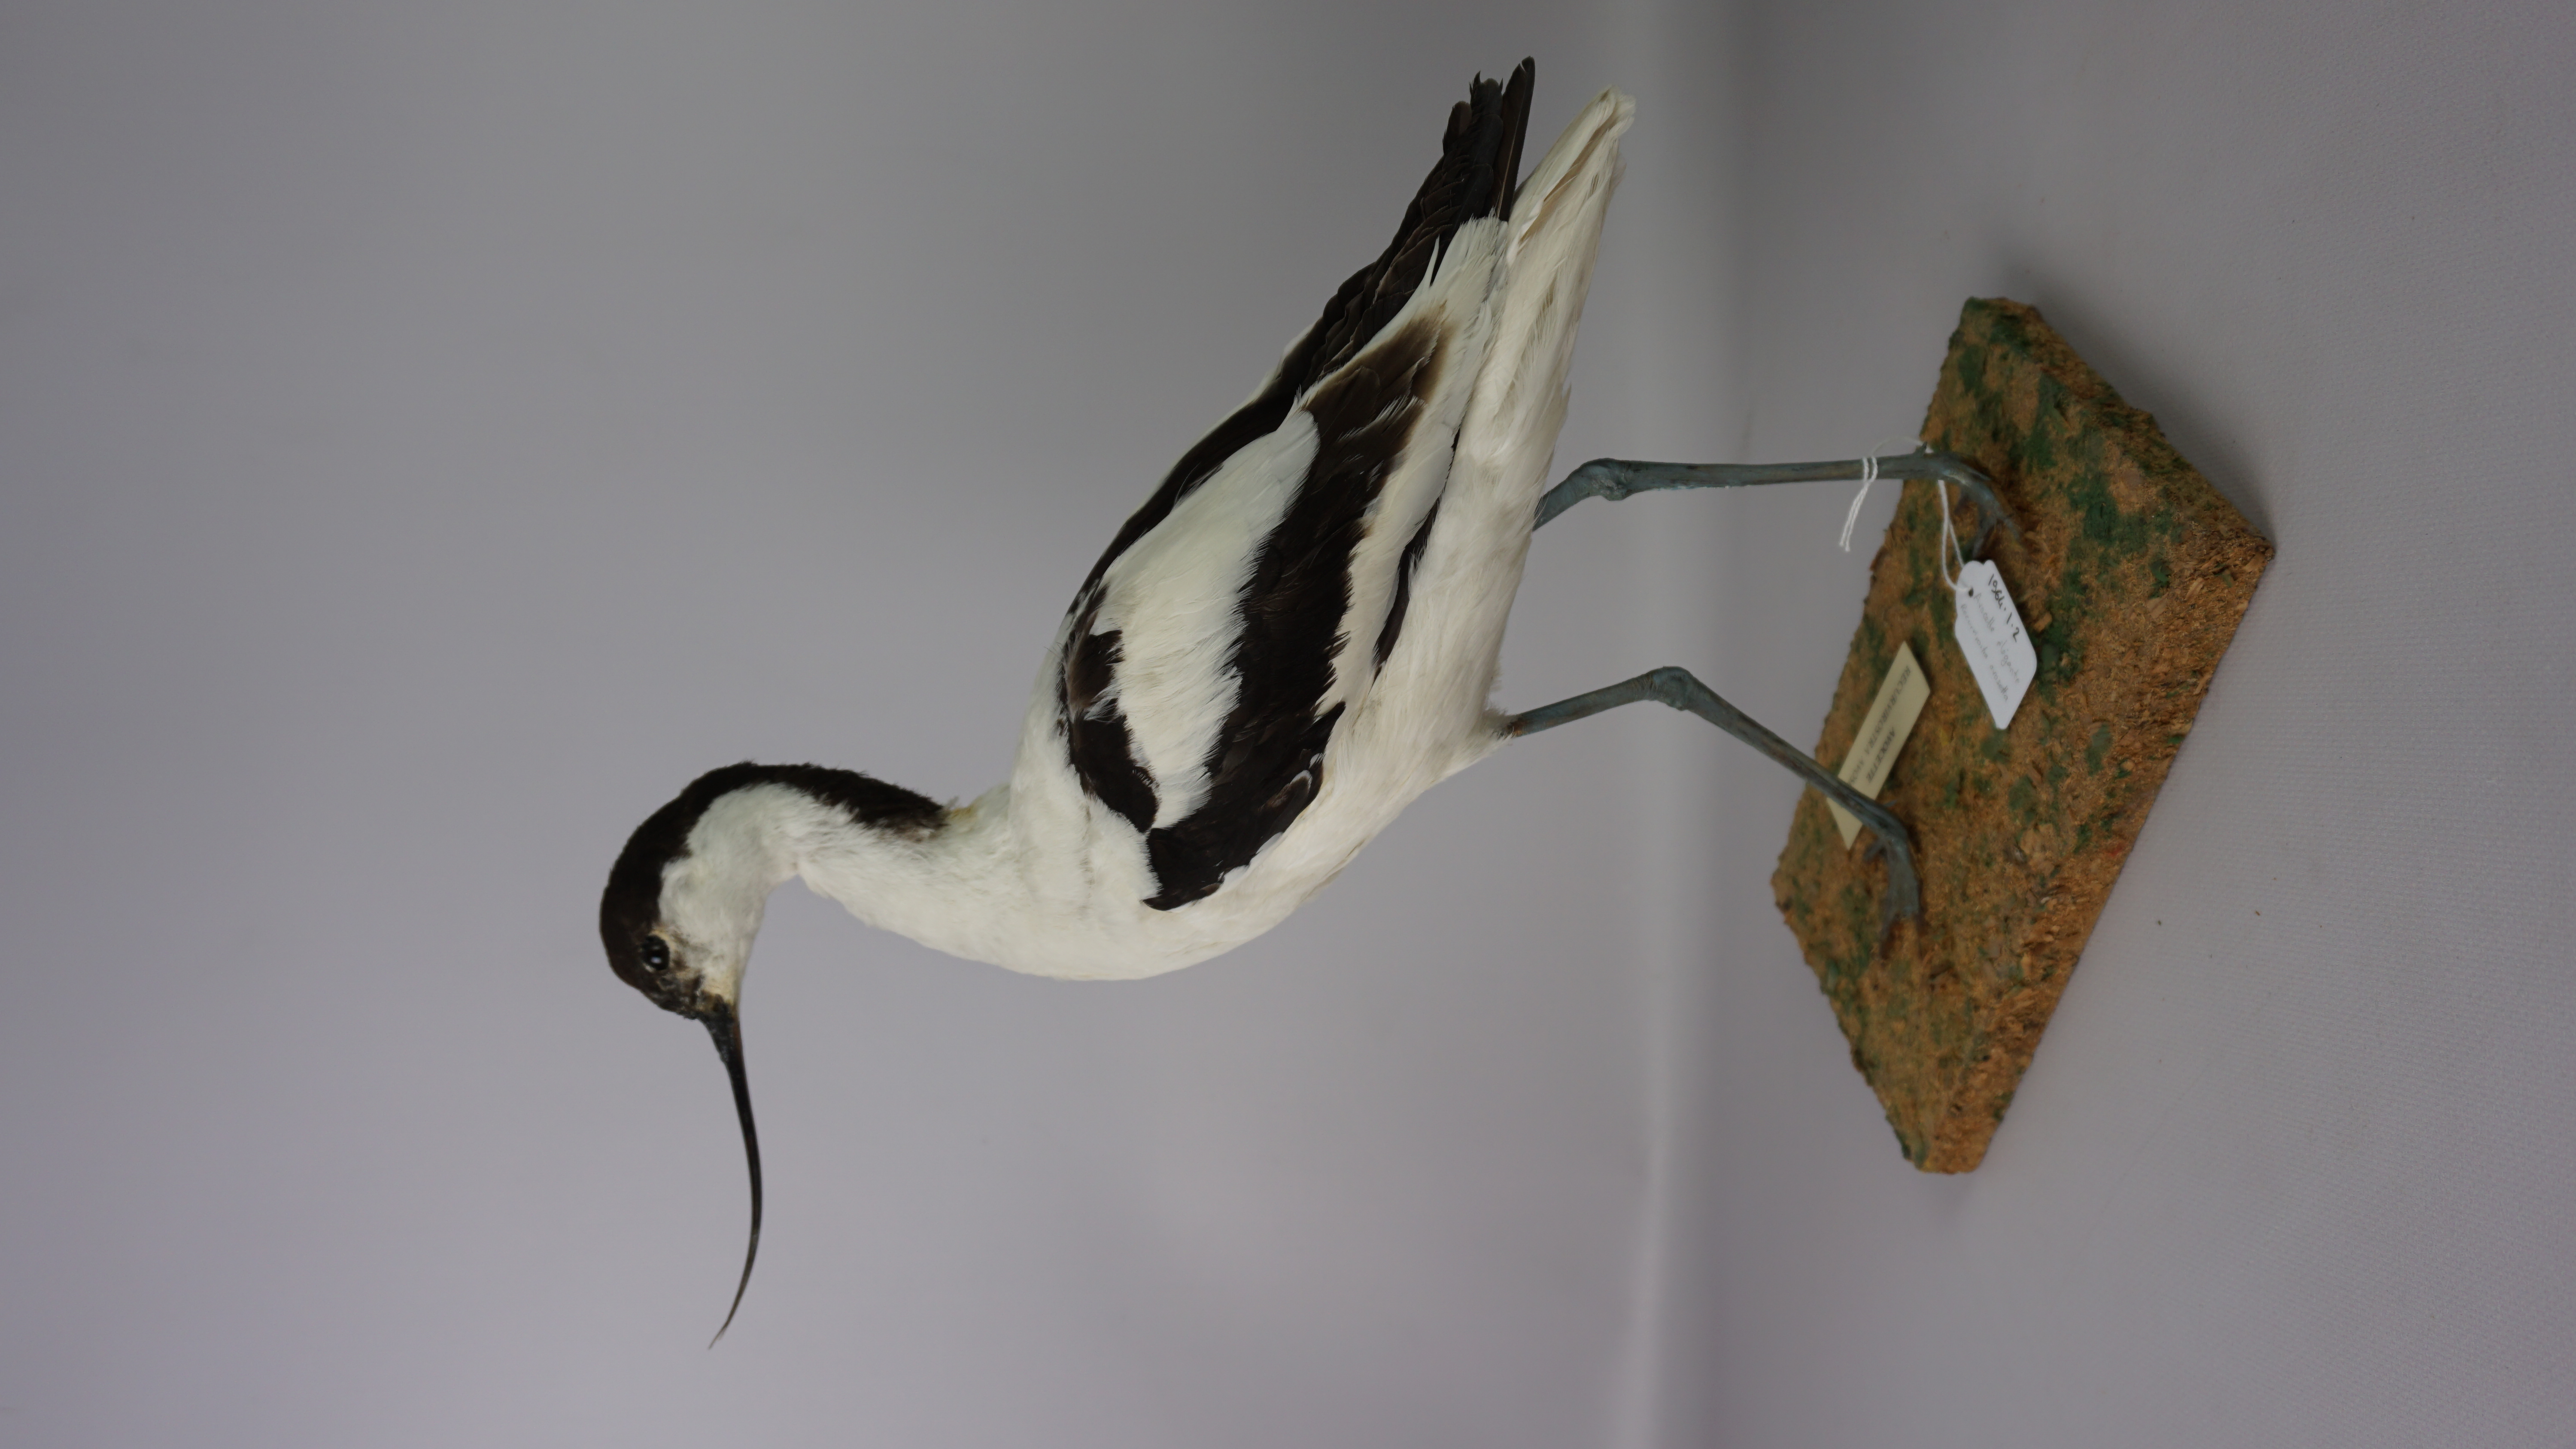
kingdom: Animalia
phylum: Chordata
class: Aves
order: Charadriiformes
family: Recurvirostridae
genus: Recurvirostra
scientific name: Recurvirostra avosetta
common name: Pied avocet
